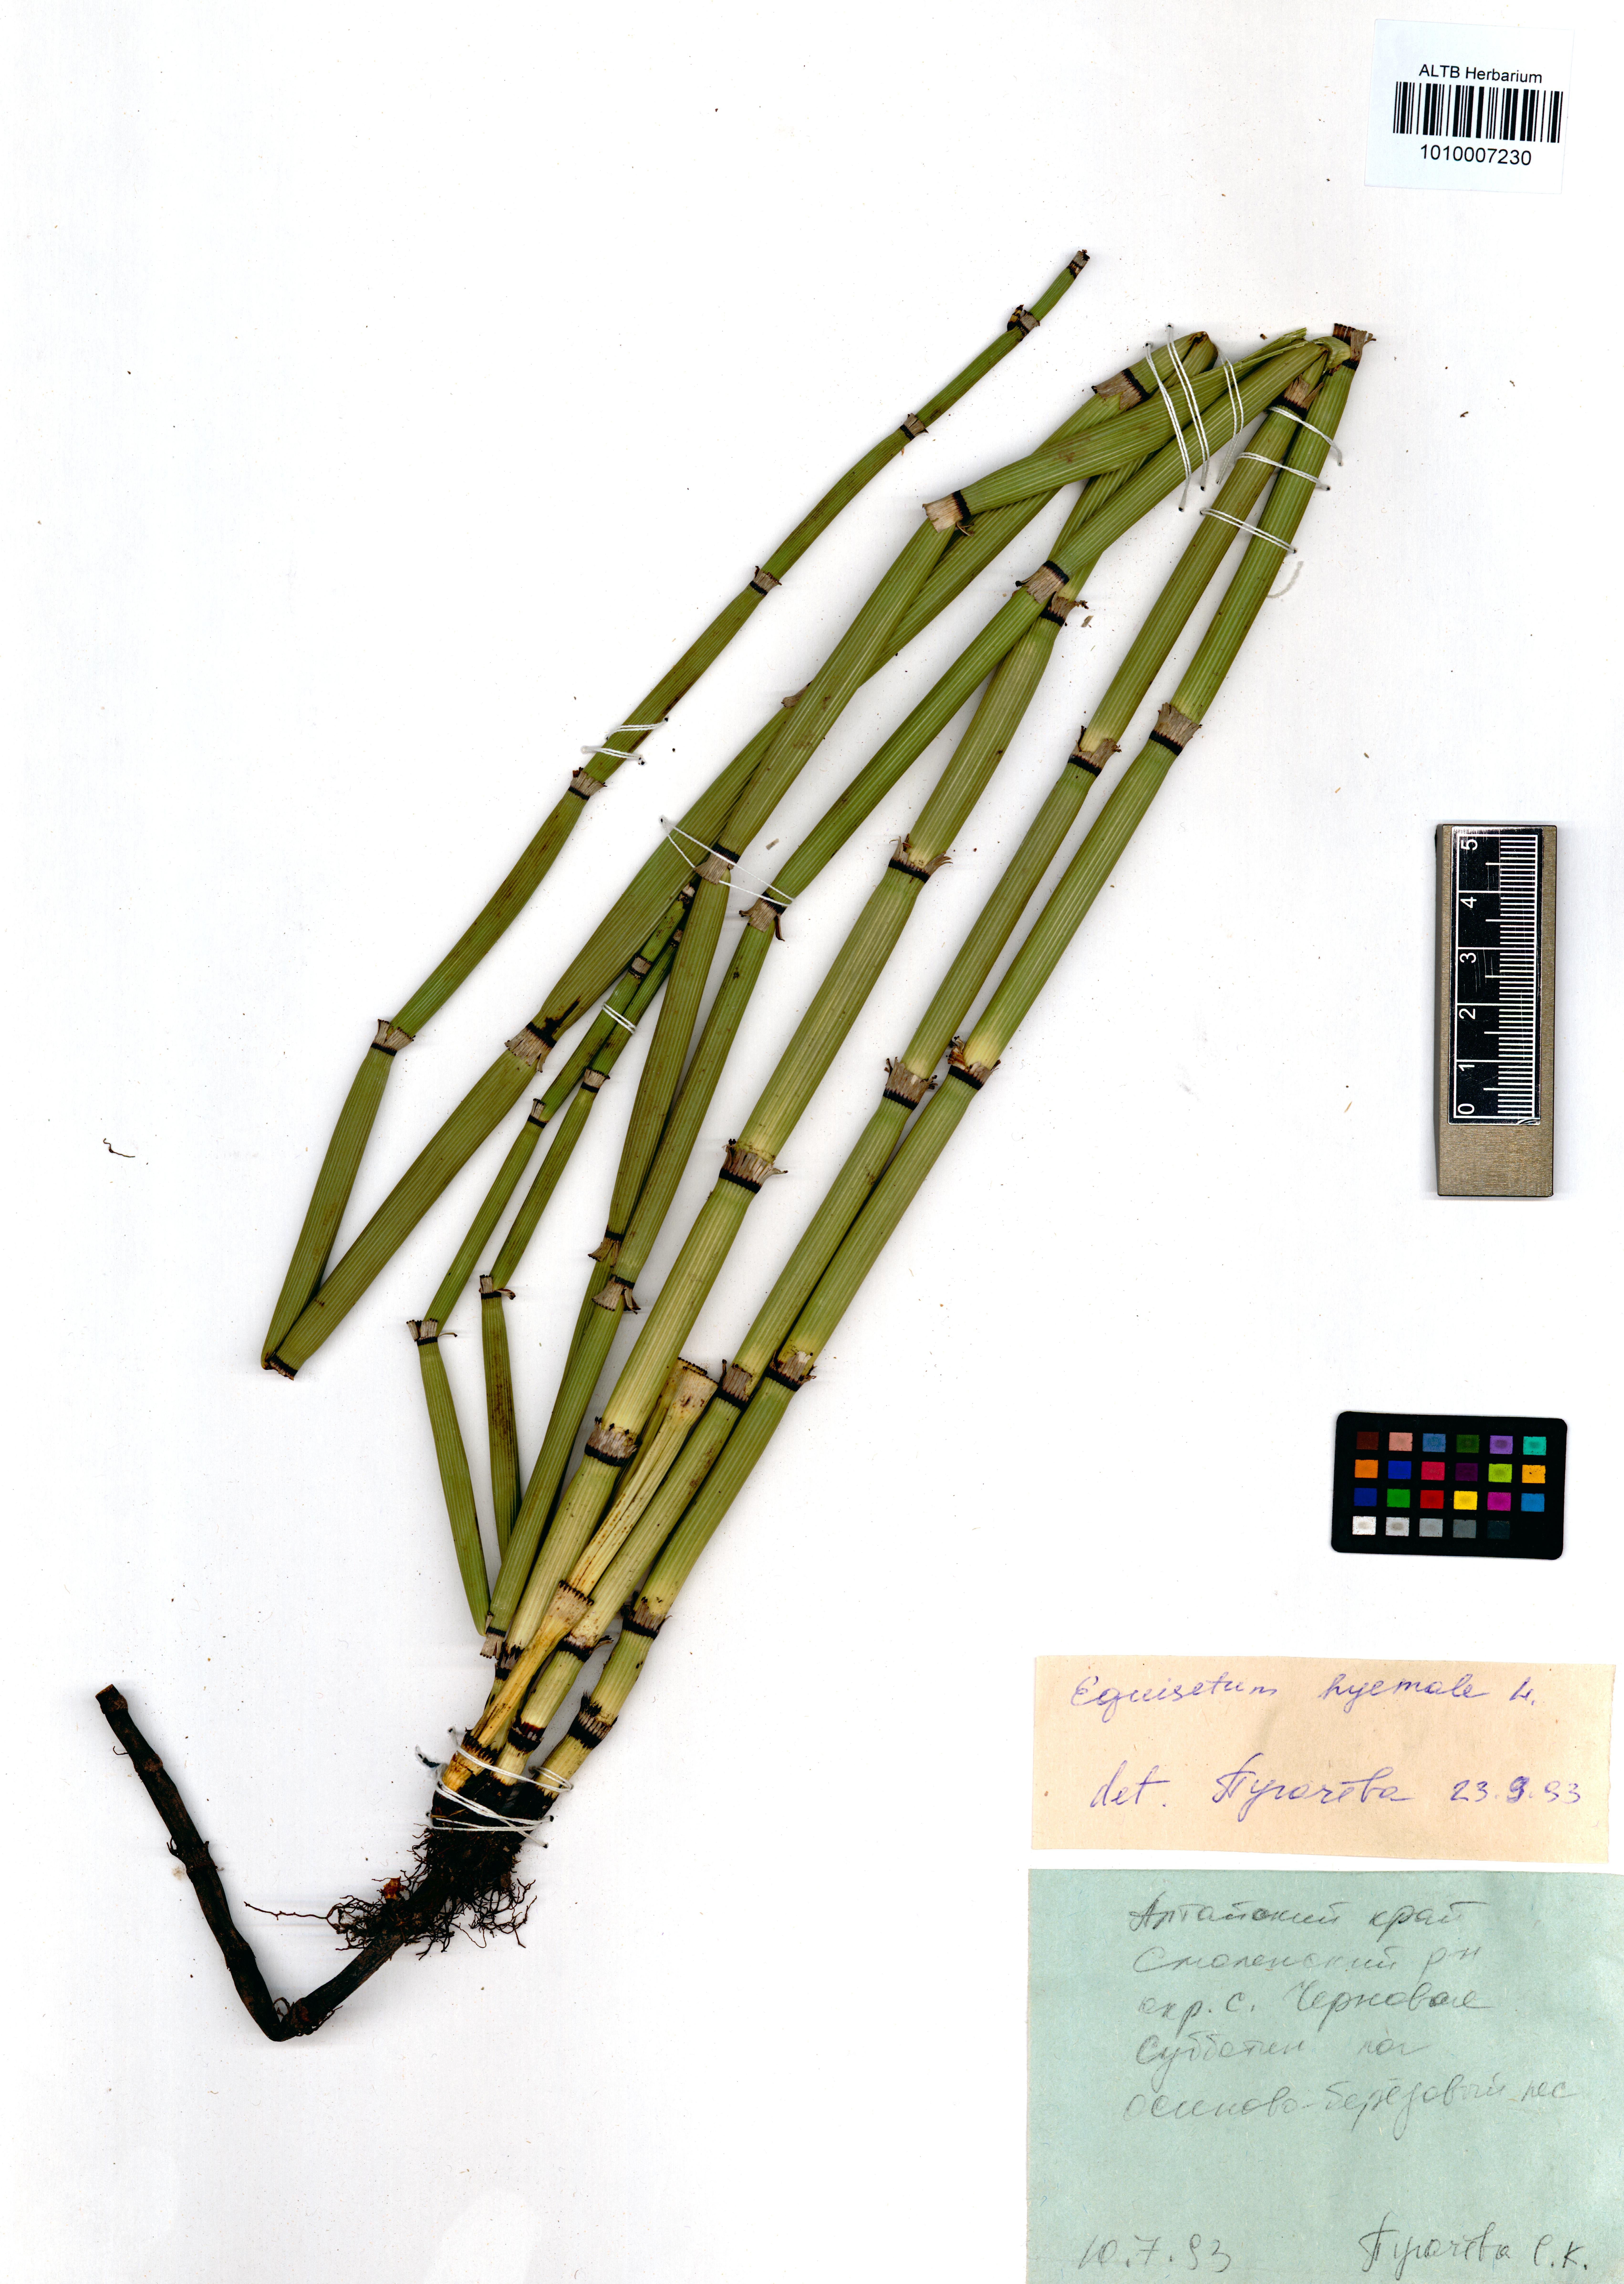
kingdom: Plantae
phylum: Tracheophyta
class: Polypodiopsida
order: Equisetales
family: Equisetaceae
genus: Equisetum
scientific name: Equisetum hyemale
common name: Rough horsetail
